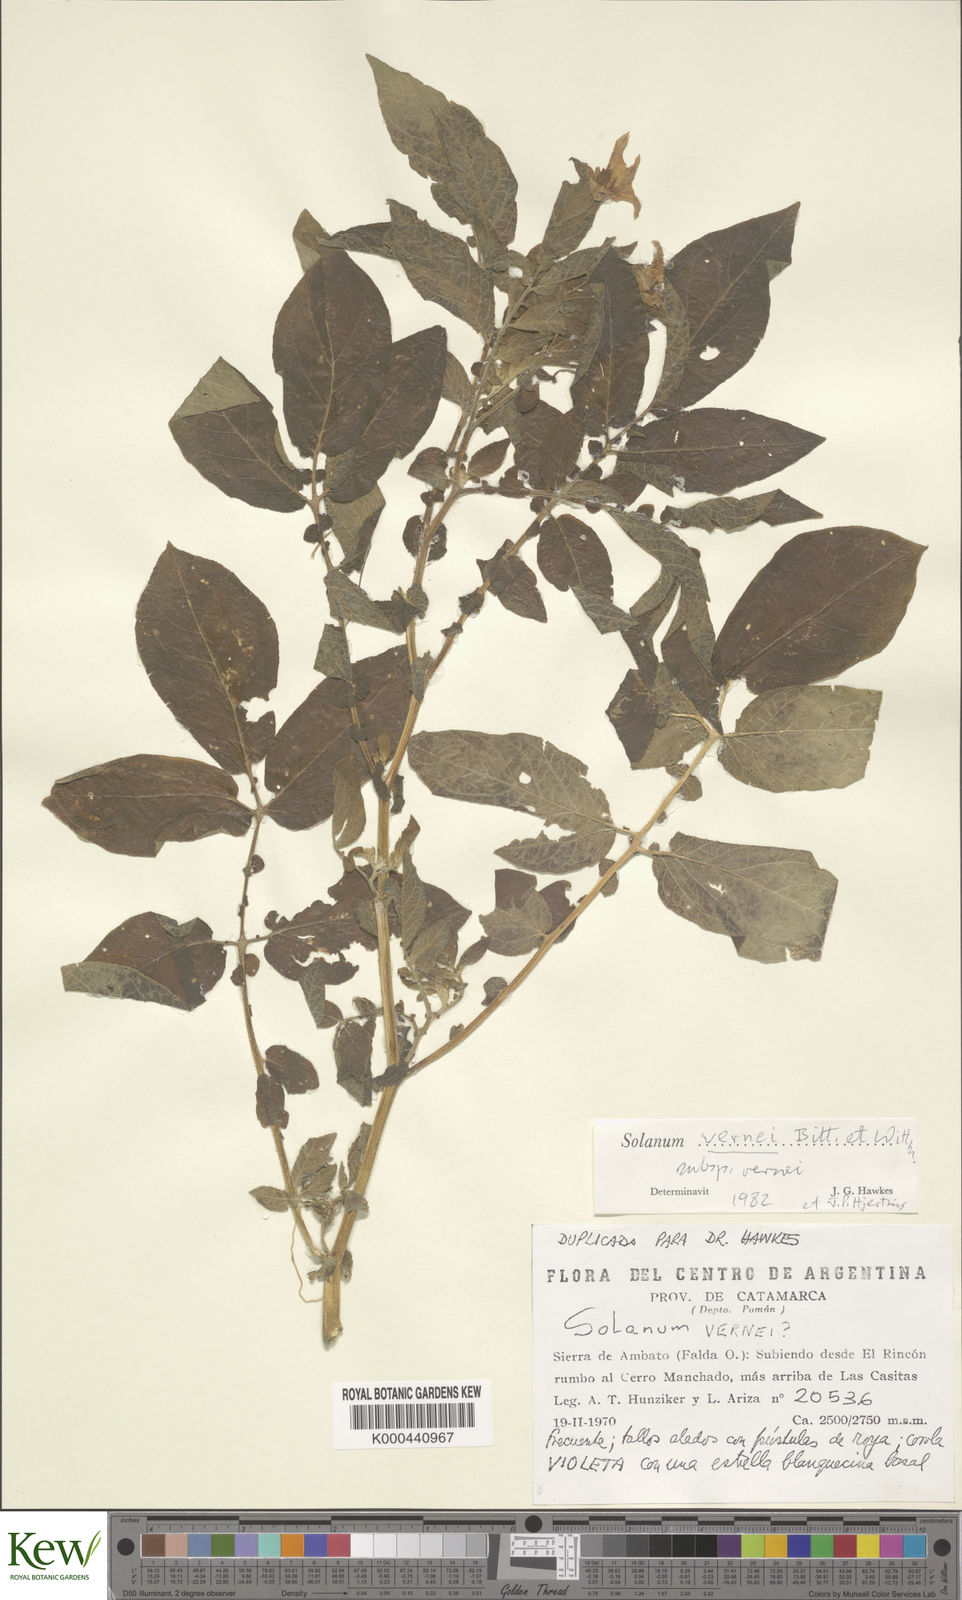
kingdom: Plantae
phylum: Tracheophyta
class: Magnoliopsida
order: Solanales
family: Solanaceae
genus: Solanum
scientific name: Solanum vernei
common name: Purple potato
